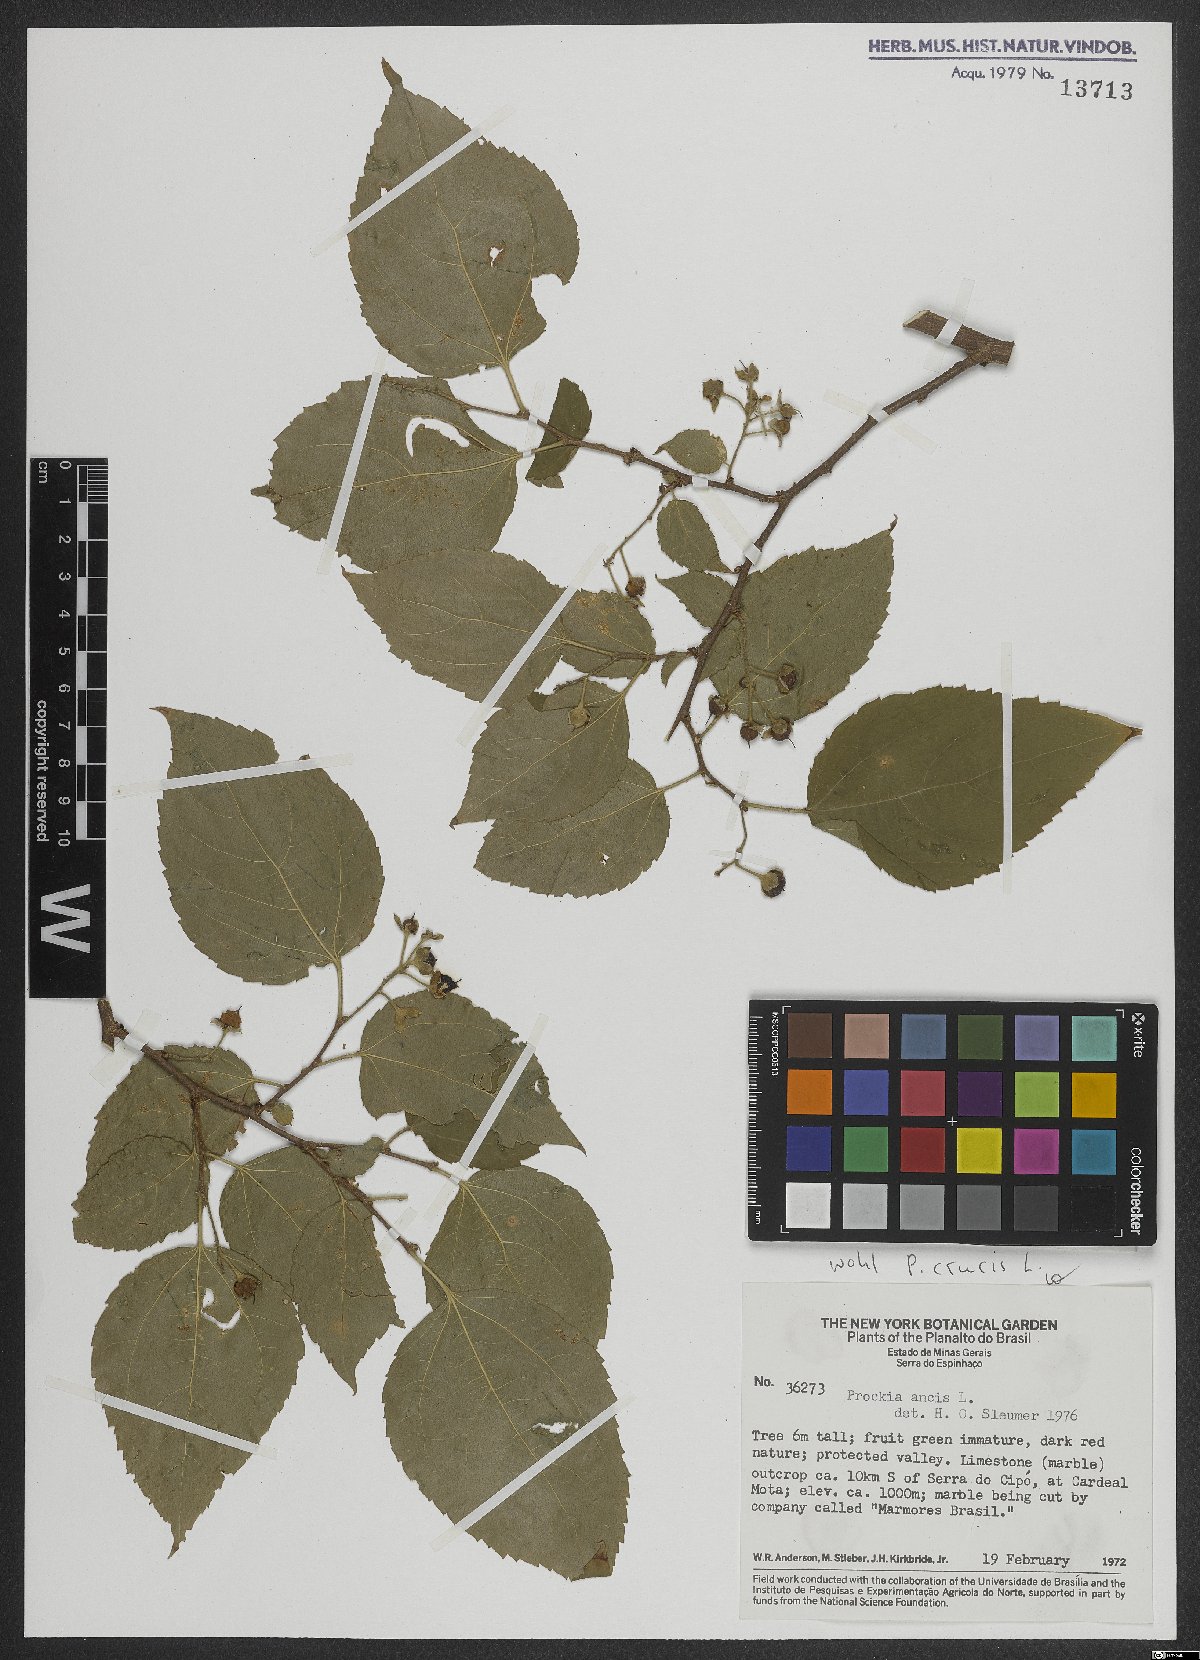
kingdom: Plantae
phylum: Tracheophyta
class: Magnoliopsida
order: Malpighiales
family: Salicaceae
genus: Prockia
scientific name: Prockia crucis
